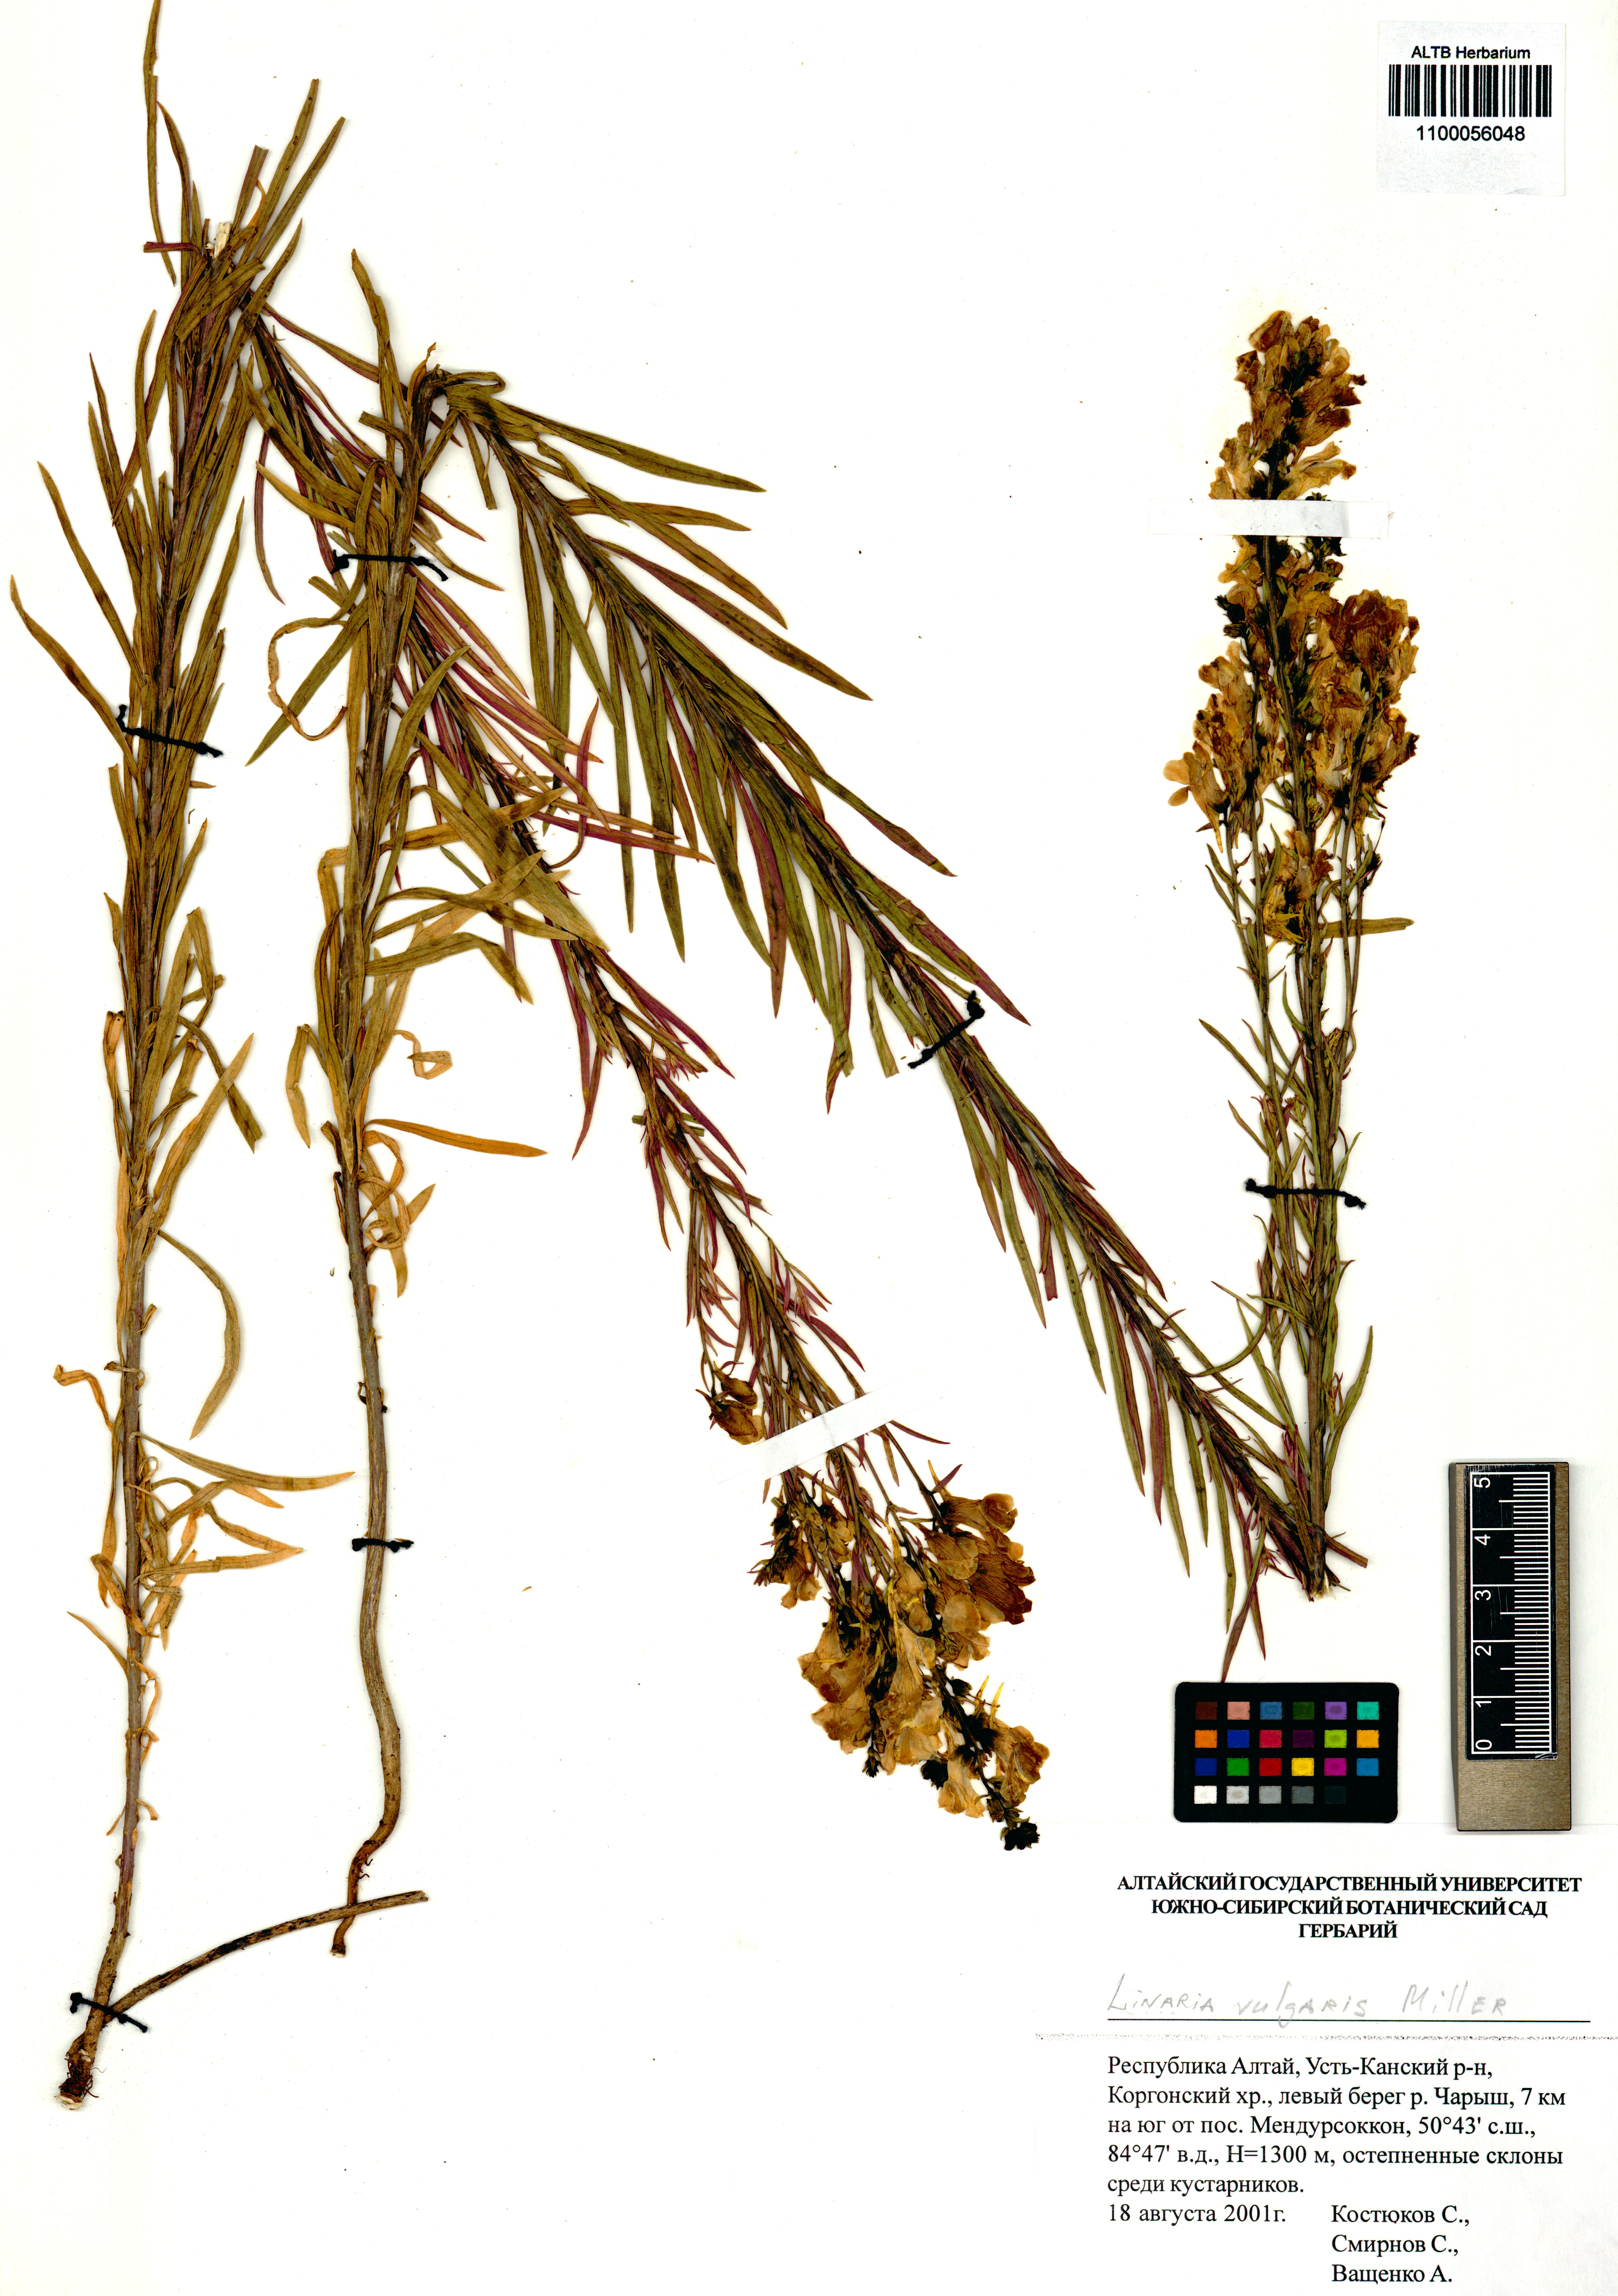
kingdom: Plantae
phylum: Tracheophyta
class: Magnoliopsida
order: Lamiales
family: Plantaginaceae
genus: Linaria
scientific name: Linaria vulgaris
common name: Butter and eggs
